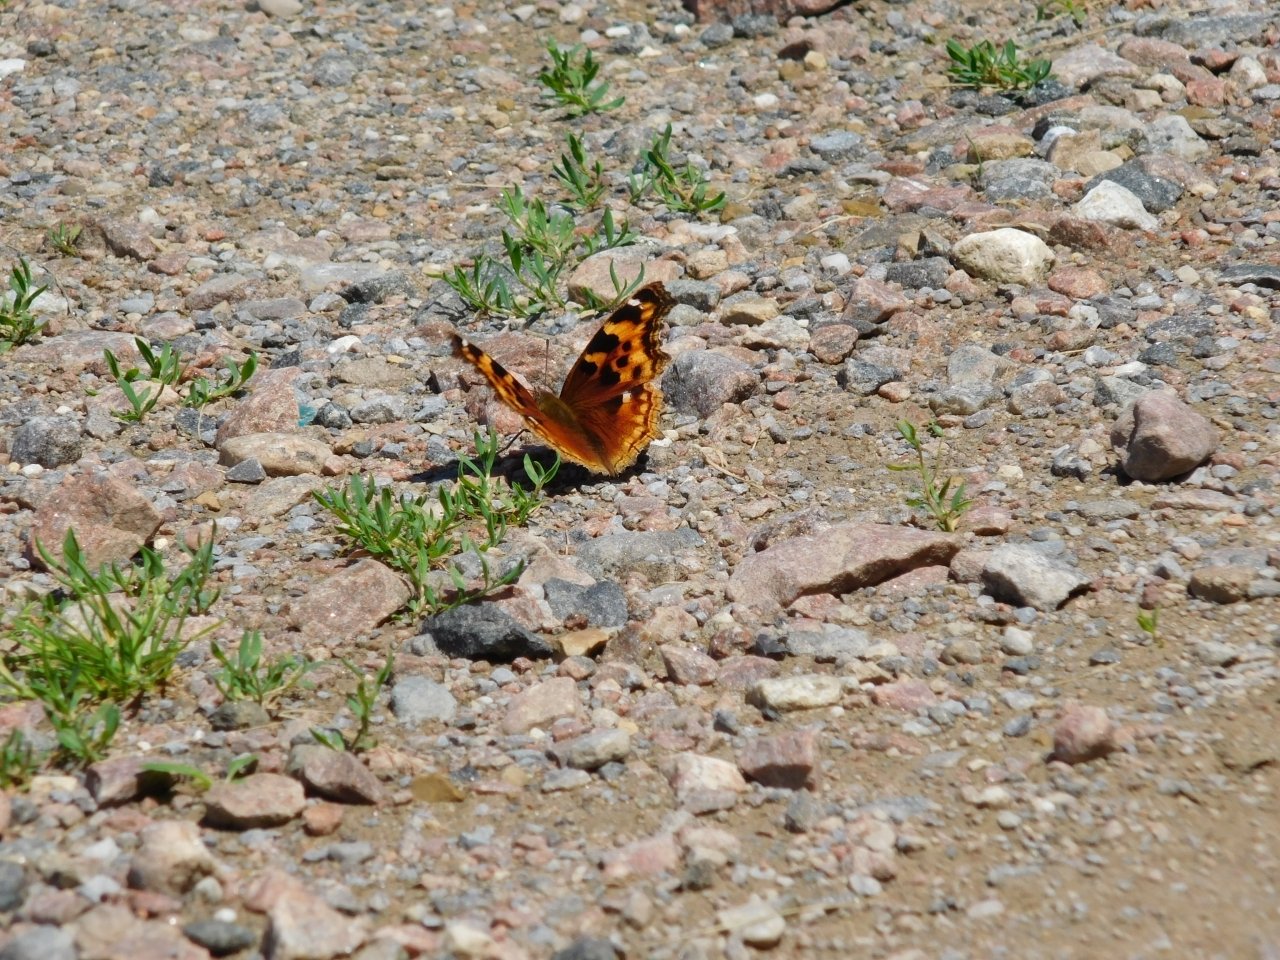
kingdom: Animalia
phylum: Arthropoda
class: Insecta
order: Lepidoptera
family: Nymphalidae
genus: Polygonia
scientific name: Polygonia vaualbum
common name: Compton Tortoiseshell
